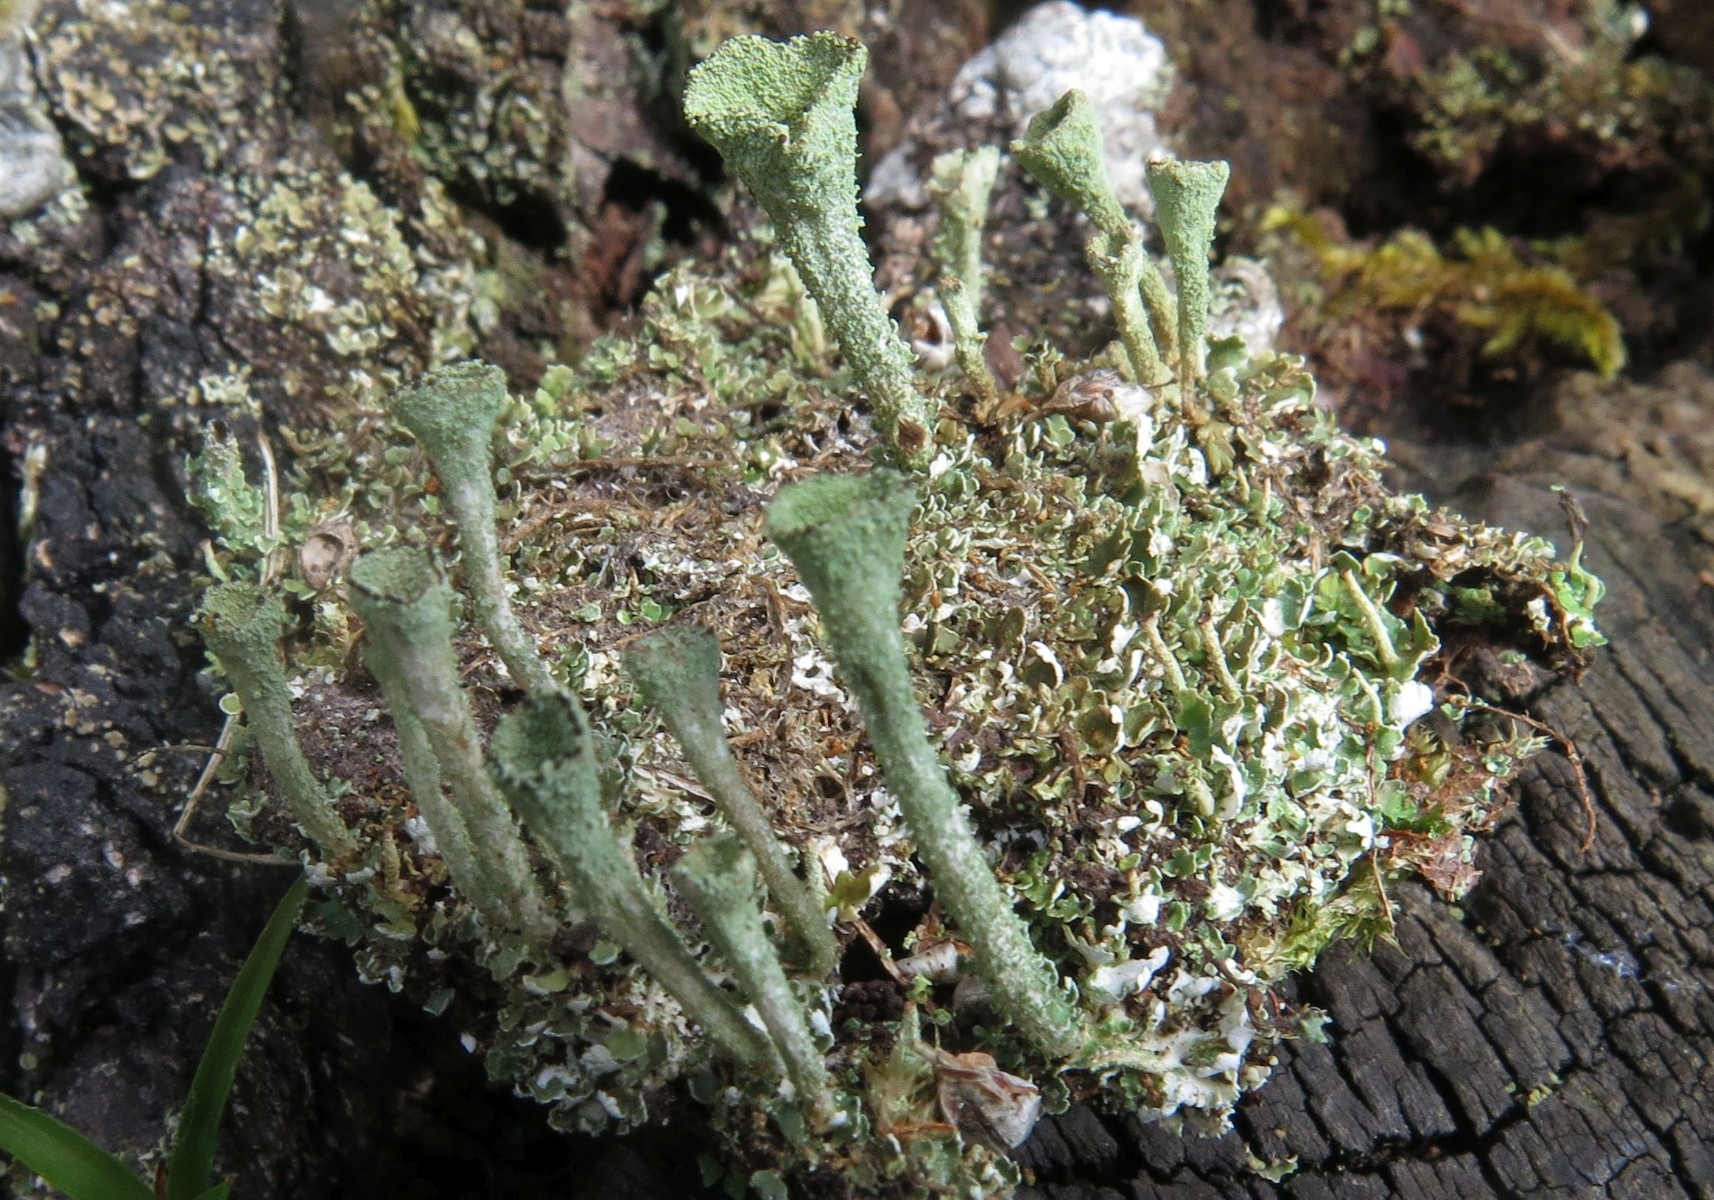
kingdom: Fungi
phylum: Ascomycota
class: Lecanoromycetes
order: Lecanorales
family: Cladoniaceae
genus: Cladonia
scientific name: Cladonia
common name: brungrøn bægerlav
